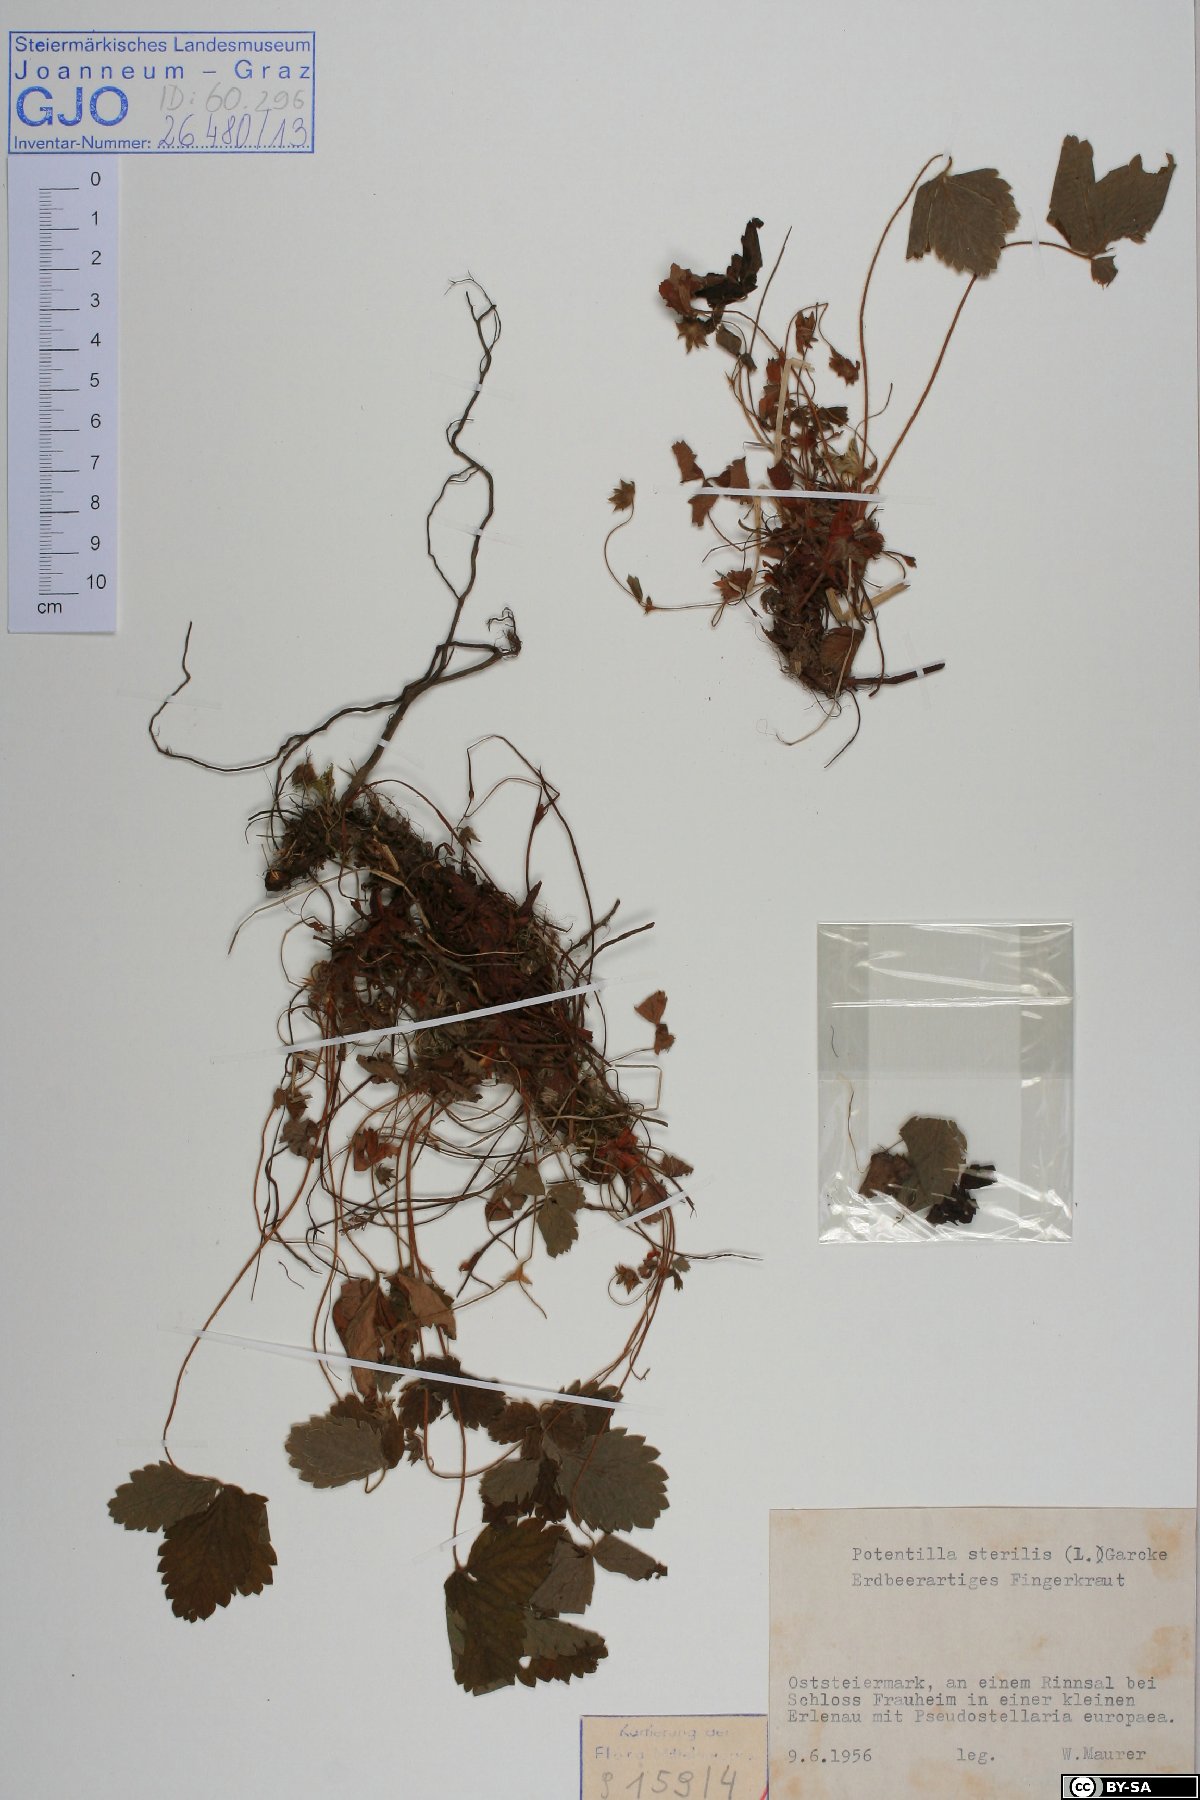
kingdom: Plantae
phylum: Tracheophyta
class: Magnoliopsida
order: Rosales
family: Rosaceae
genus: Potentilla
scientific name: Potentilla sterilis
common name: Barren strawberry
